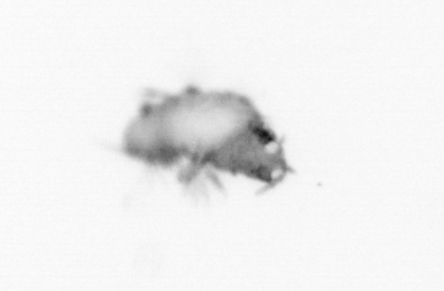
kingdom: Animalia
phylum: Annelida
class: Polychaeta
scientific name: Polychaeta
